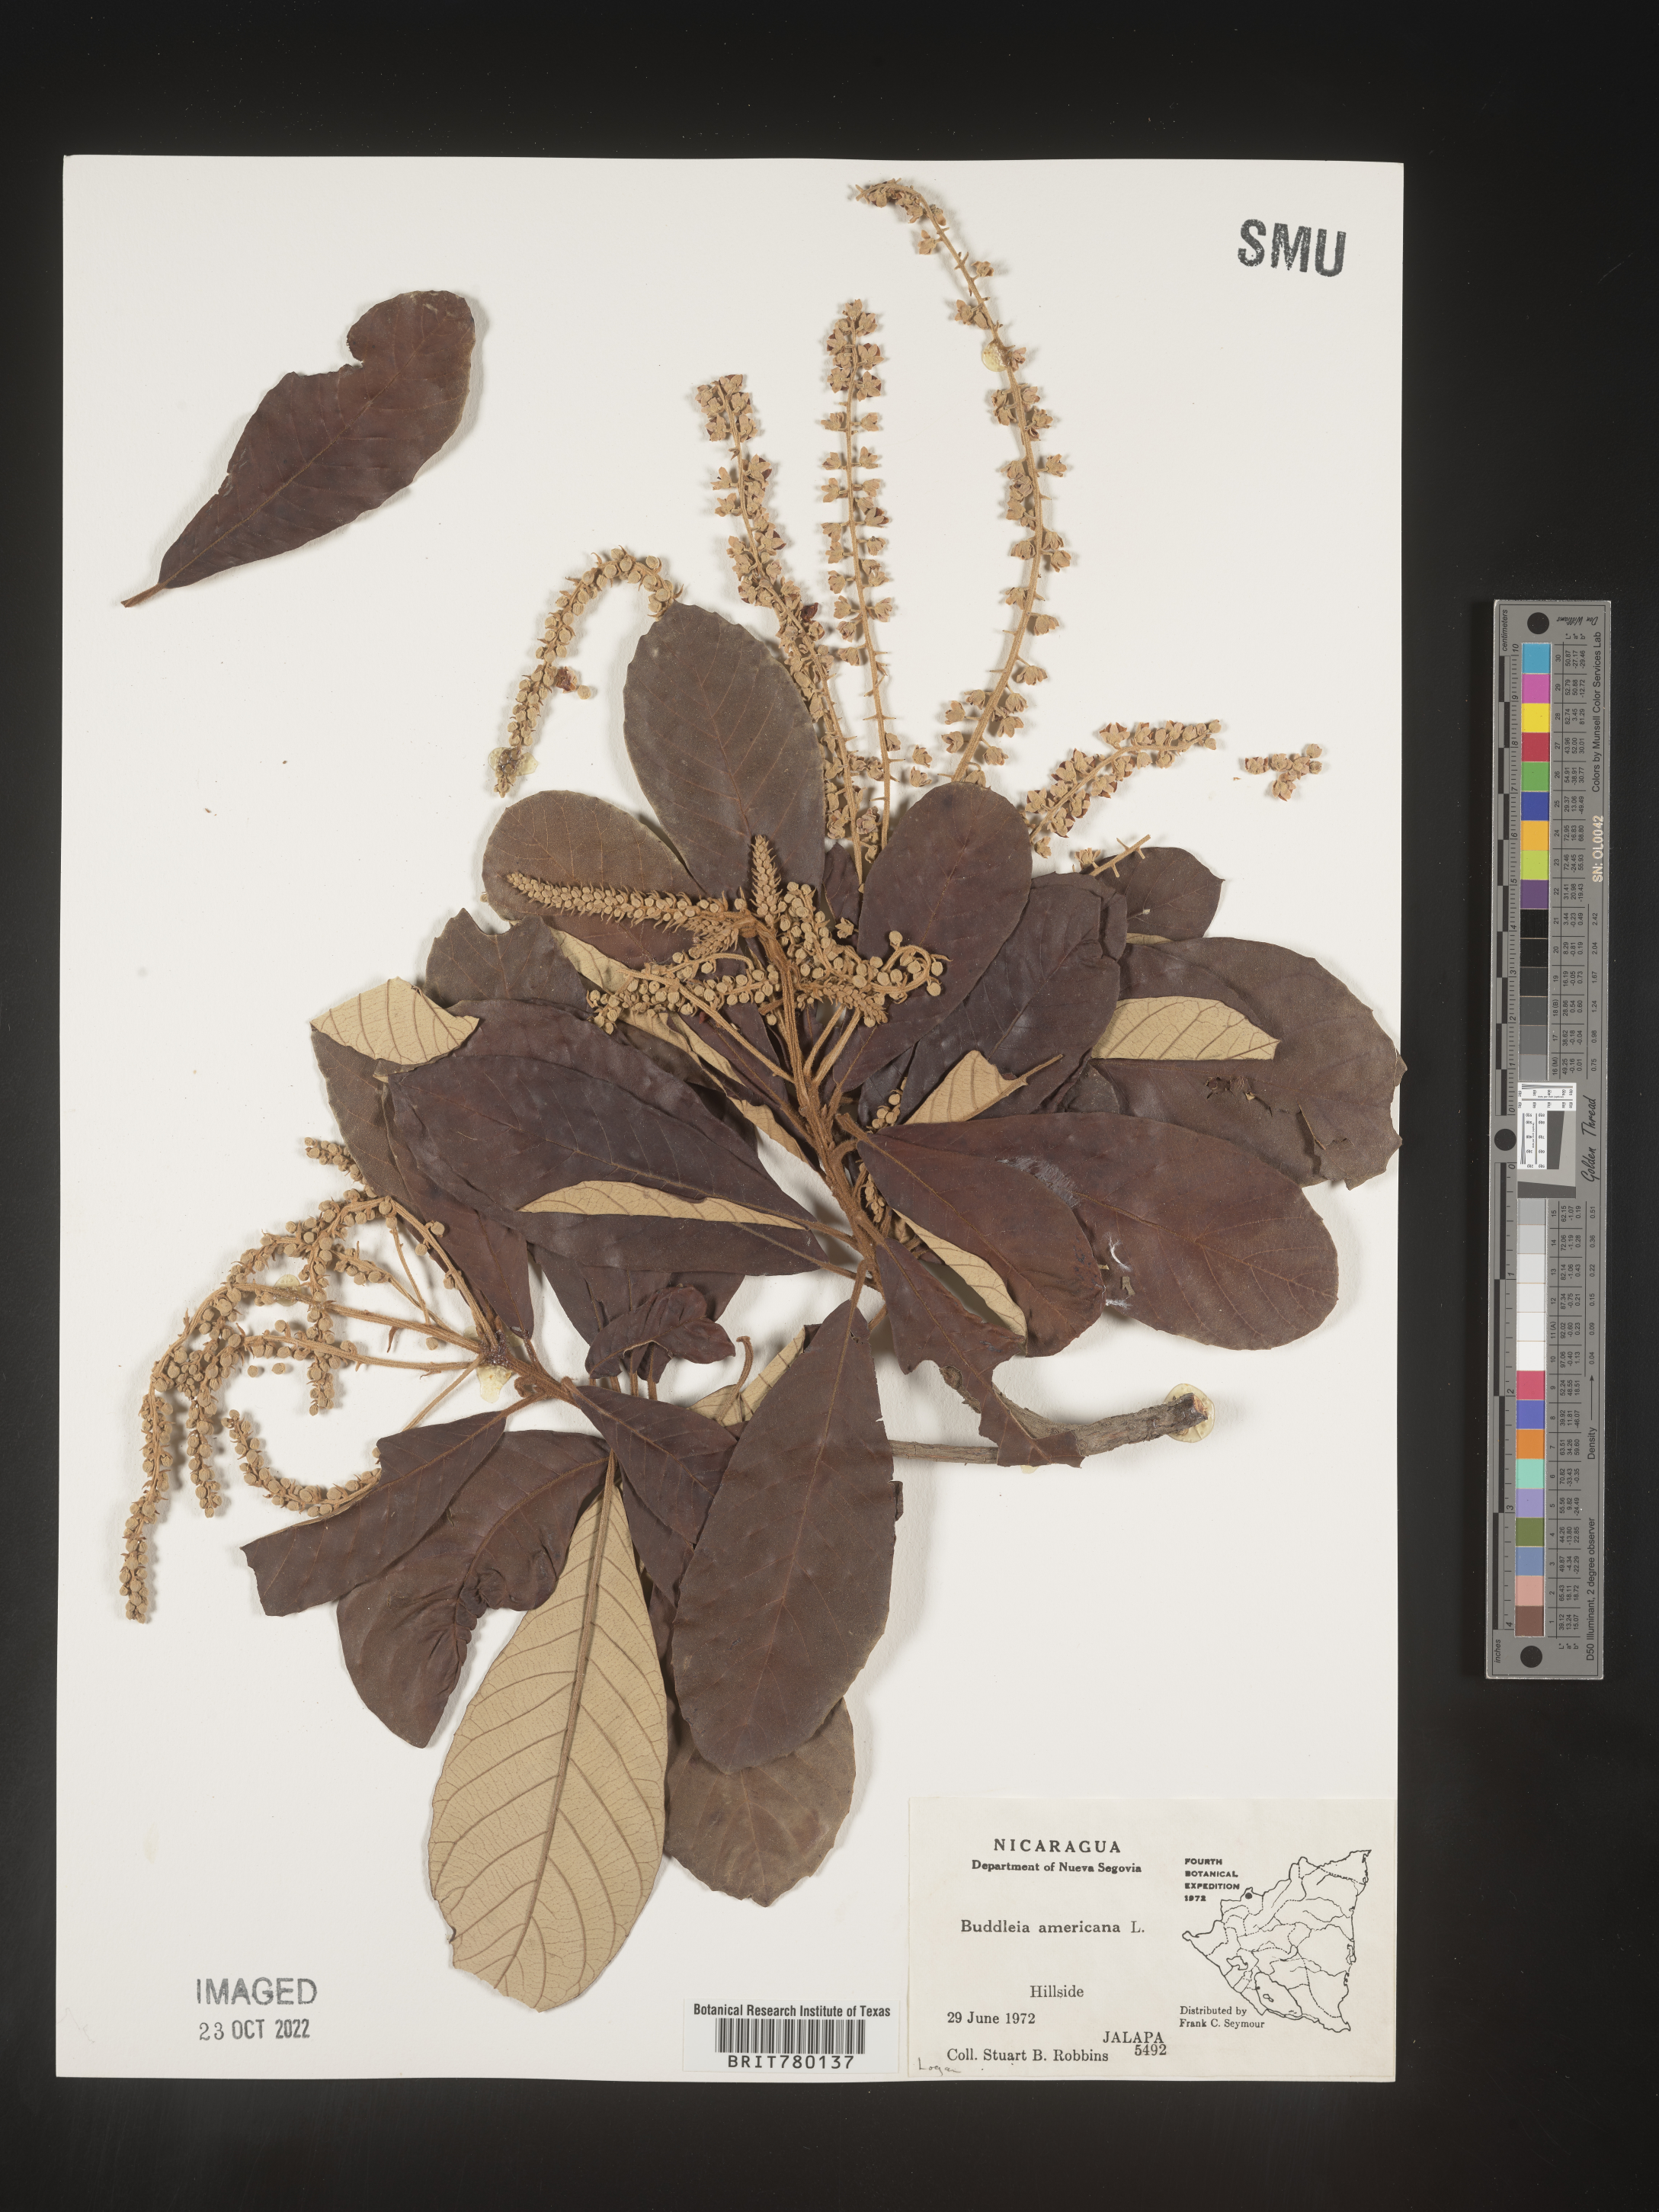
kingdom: Plantae
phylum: Tracheophyta
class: Magnoliopsida
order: Lamiales
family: Scrophulariaceae
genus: Buddleja
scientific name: Buddleja
